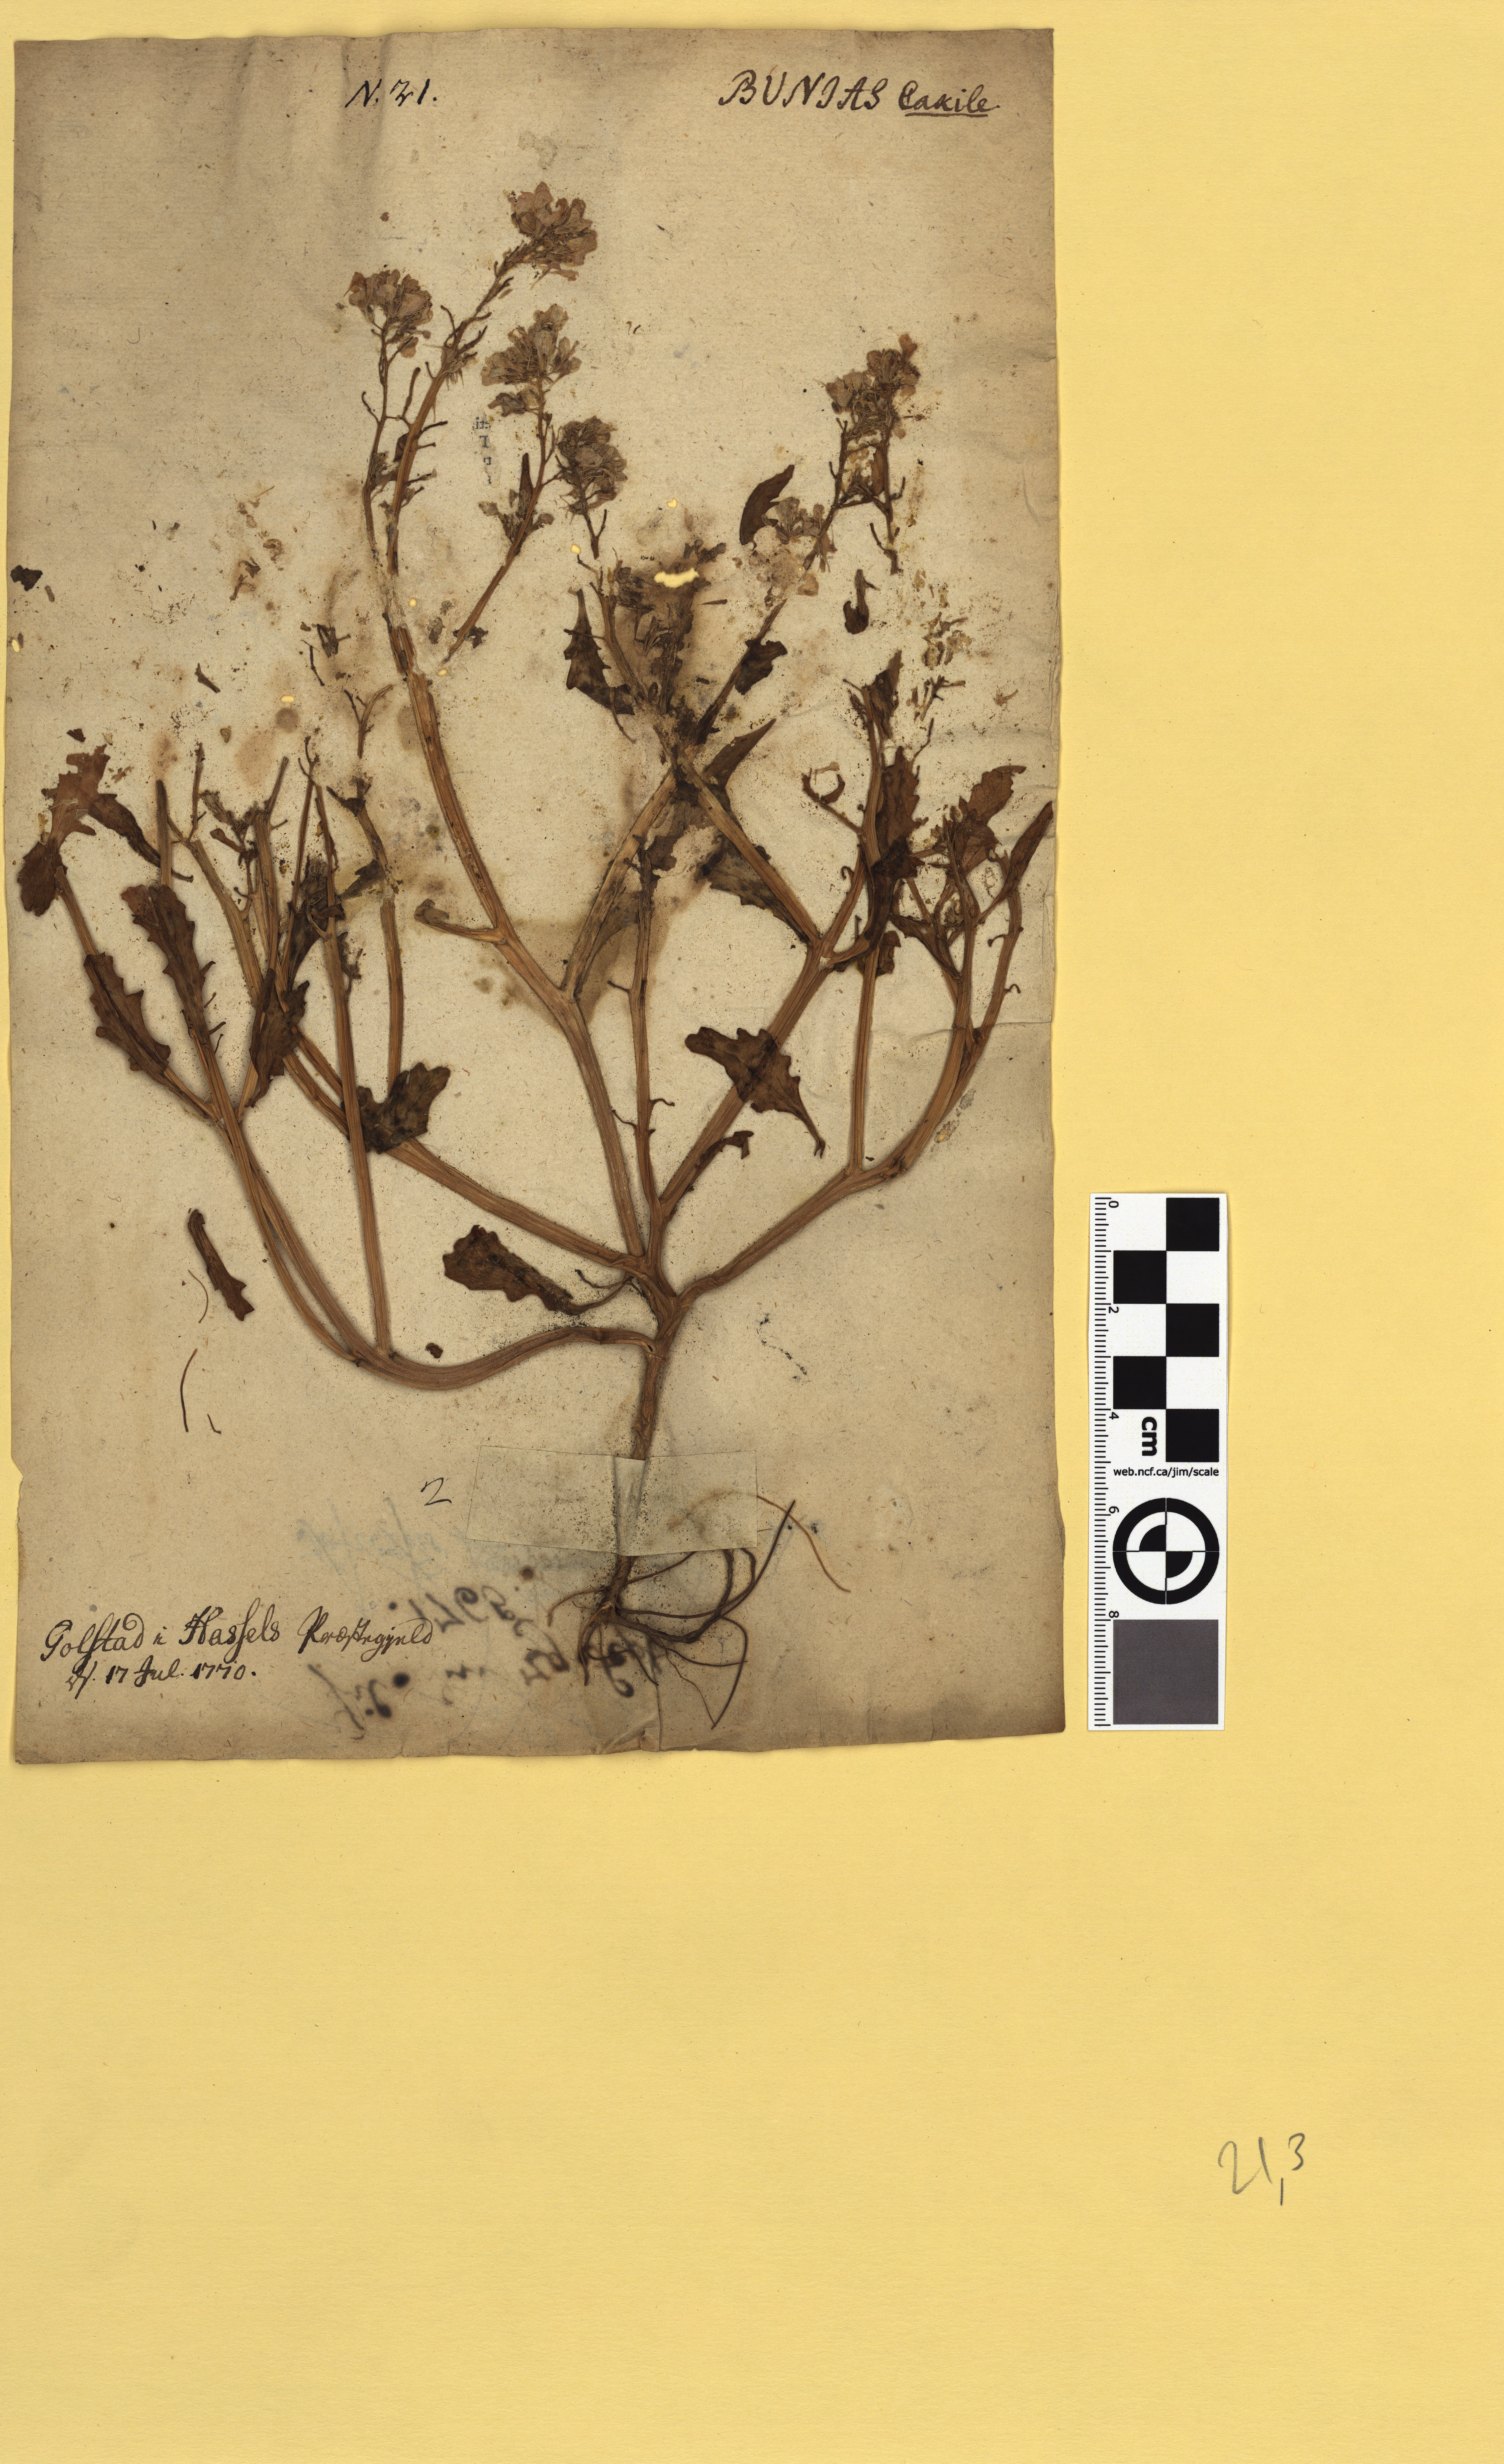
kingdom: Plantae
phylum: Tracheophyta
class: Magnoliopsida
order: Brassicales
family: Brassicaceae
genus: Cakile
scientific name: Cakile maritima
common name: Sea rocket
